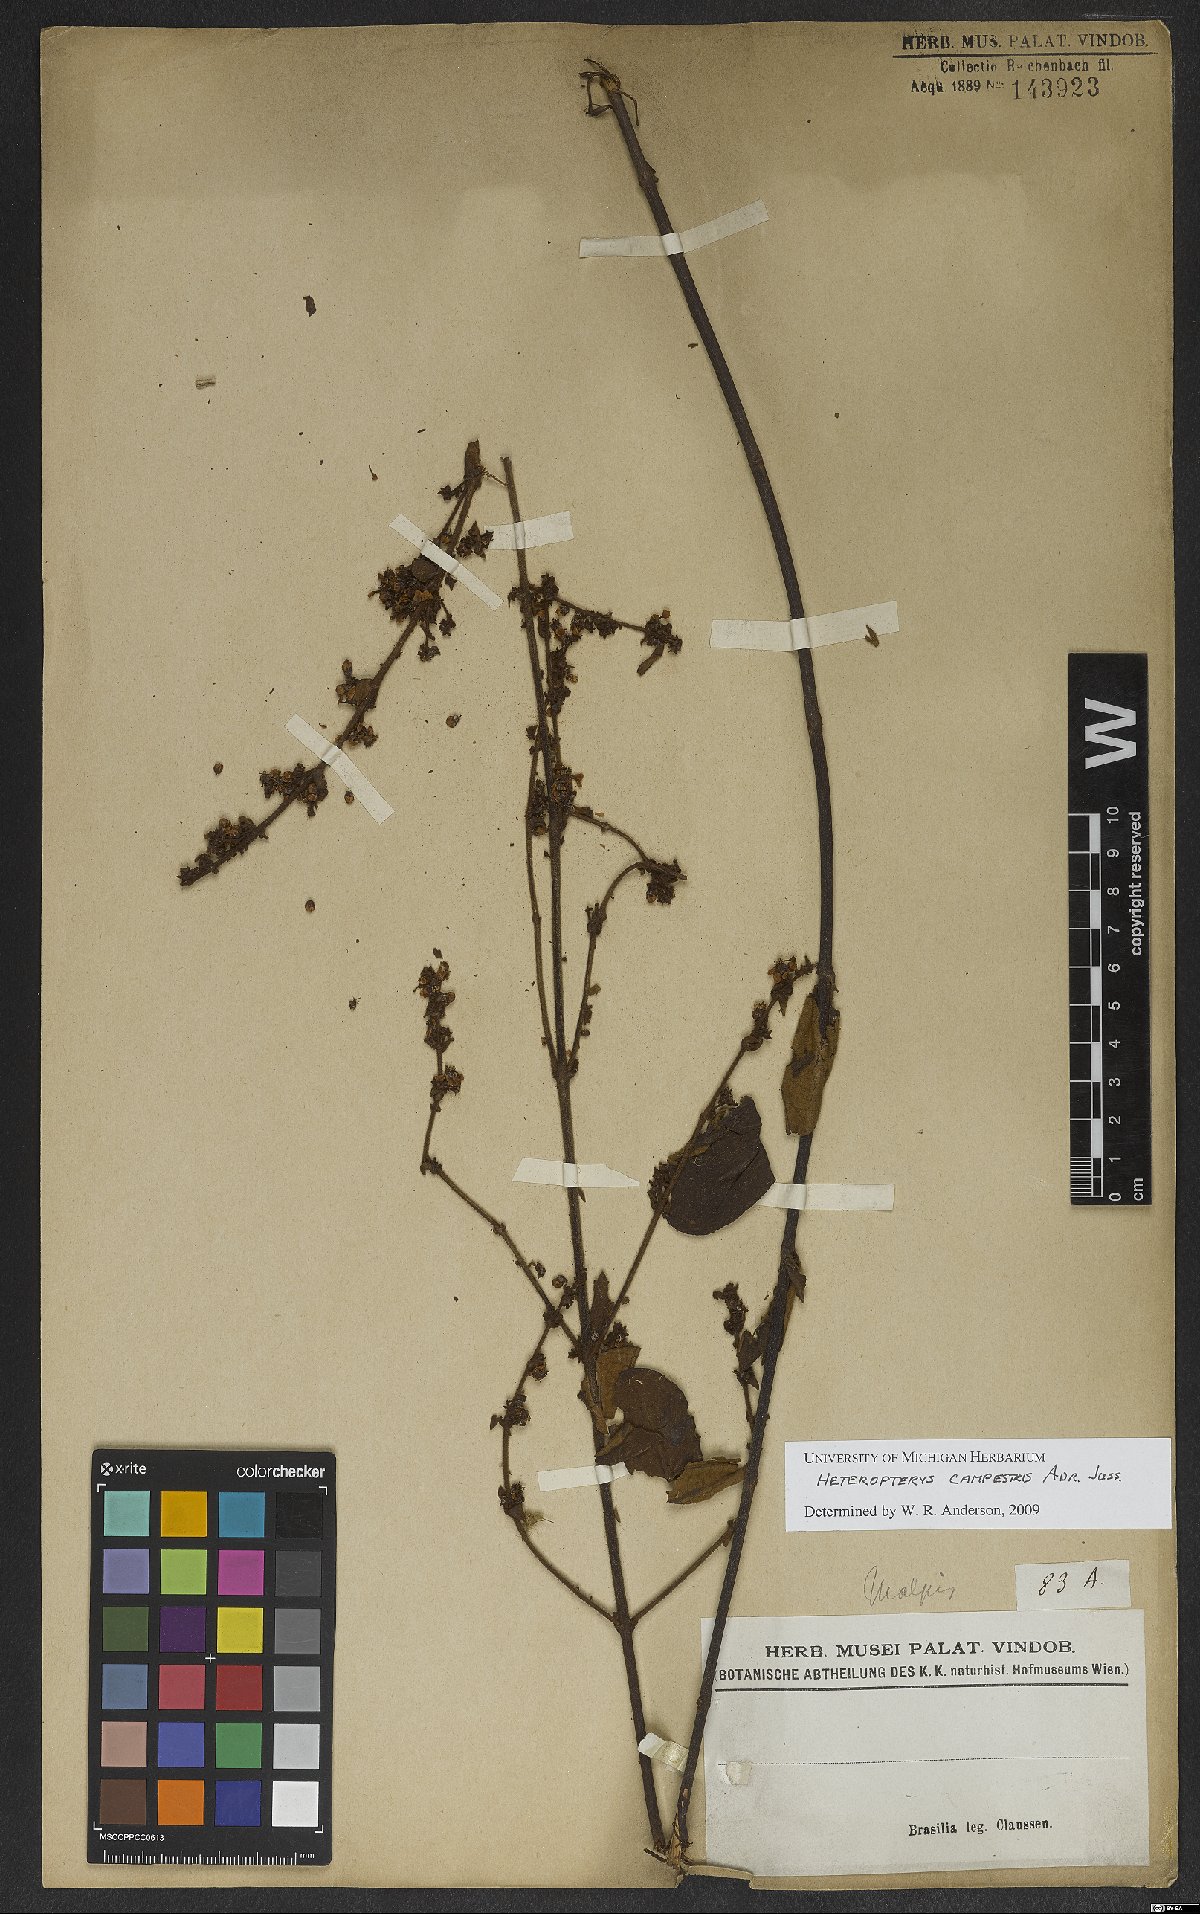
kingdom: Plantae
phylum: Tracheophyta
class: Magnoliopsida
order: Malpighiales
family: Malpighiaceae
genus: Heteropterys
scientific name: Heteropterys campestris
